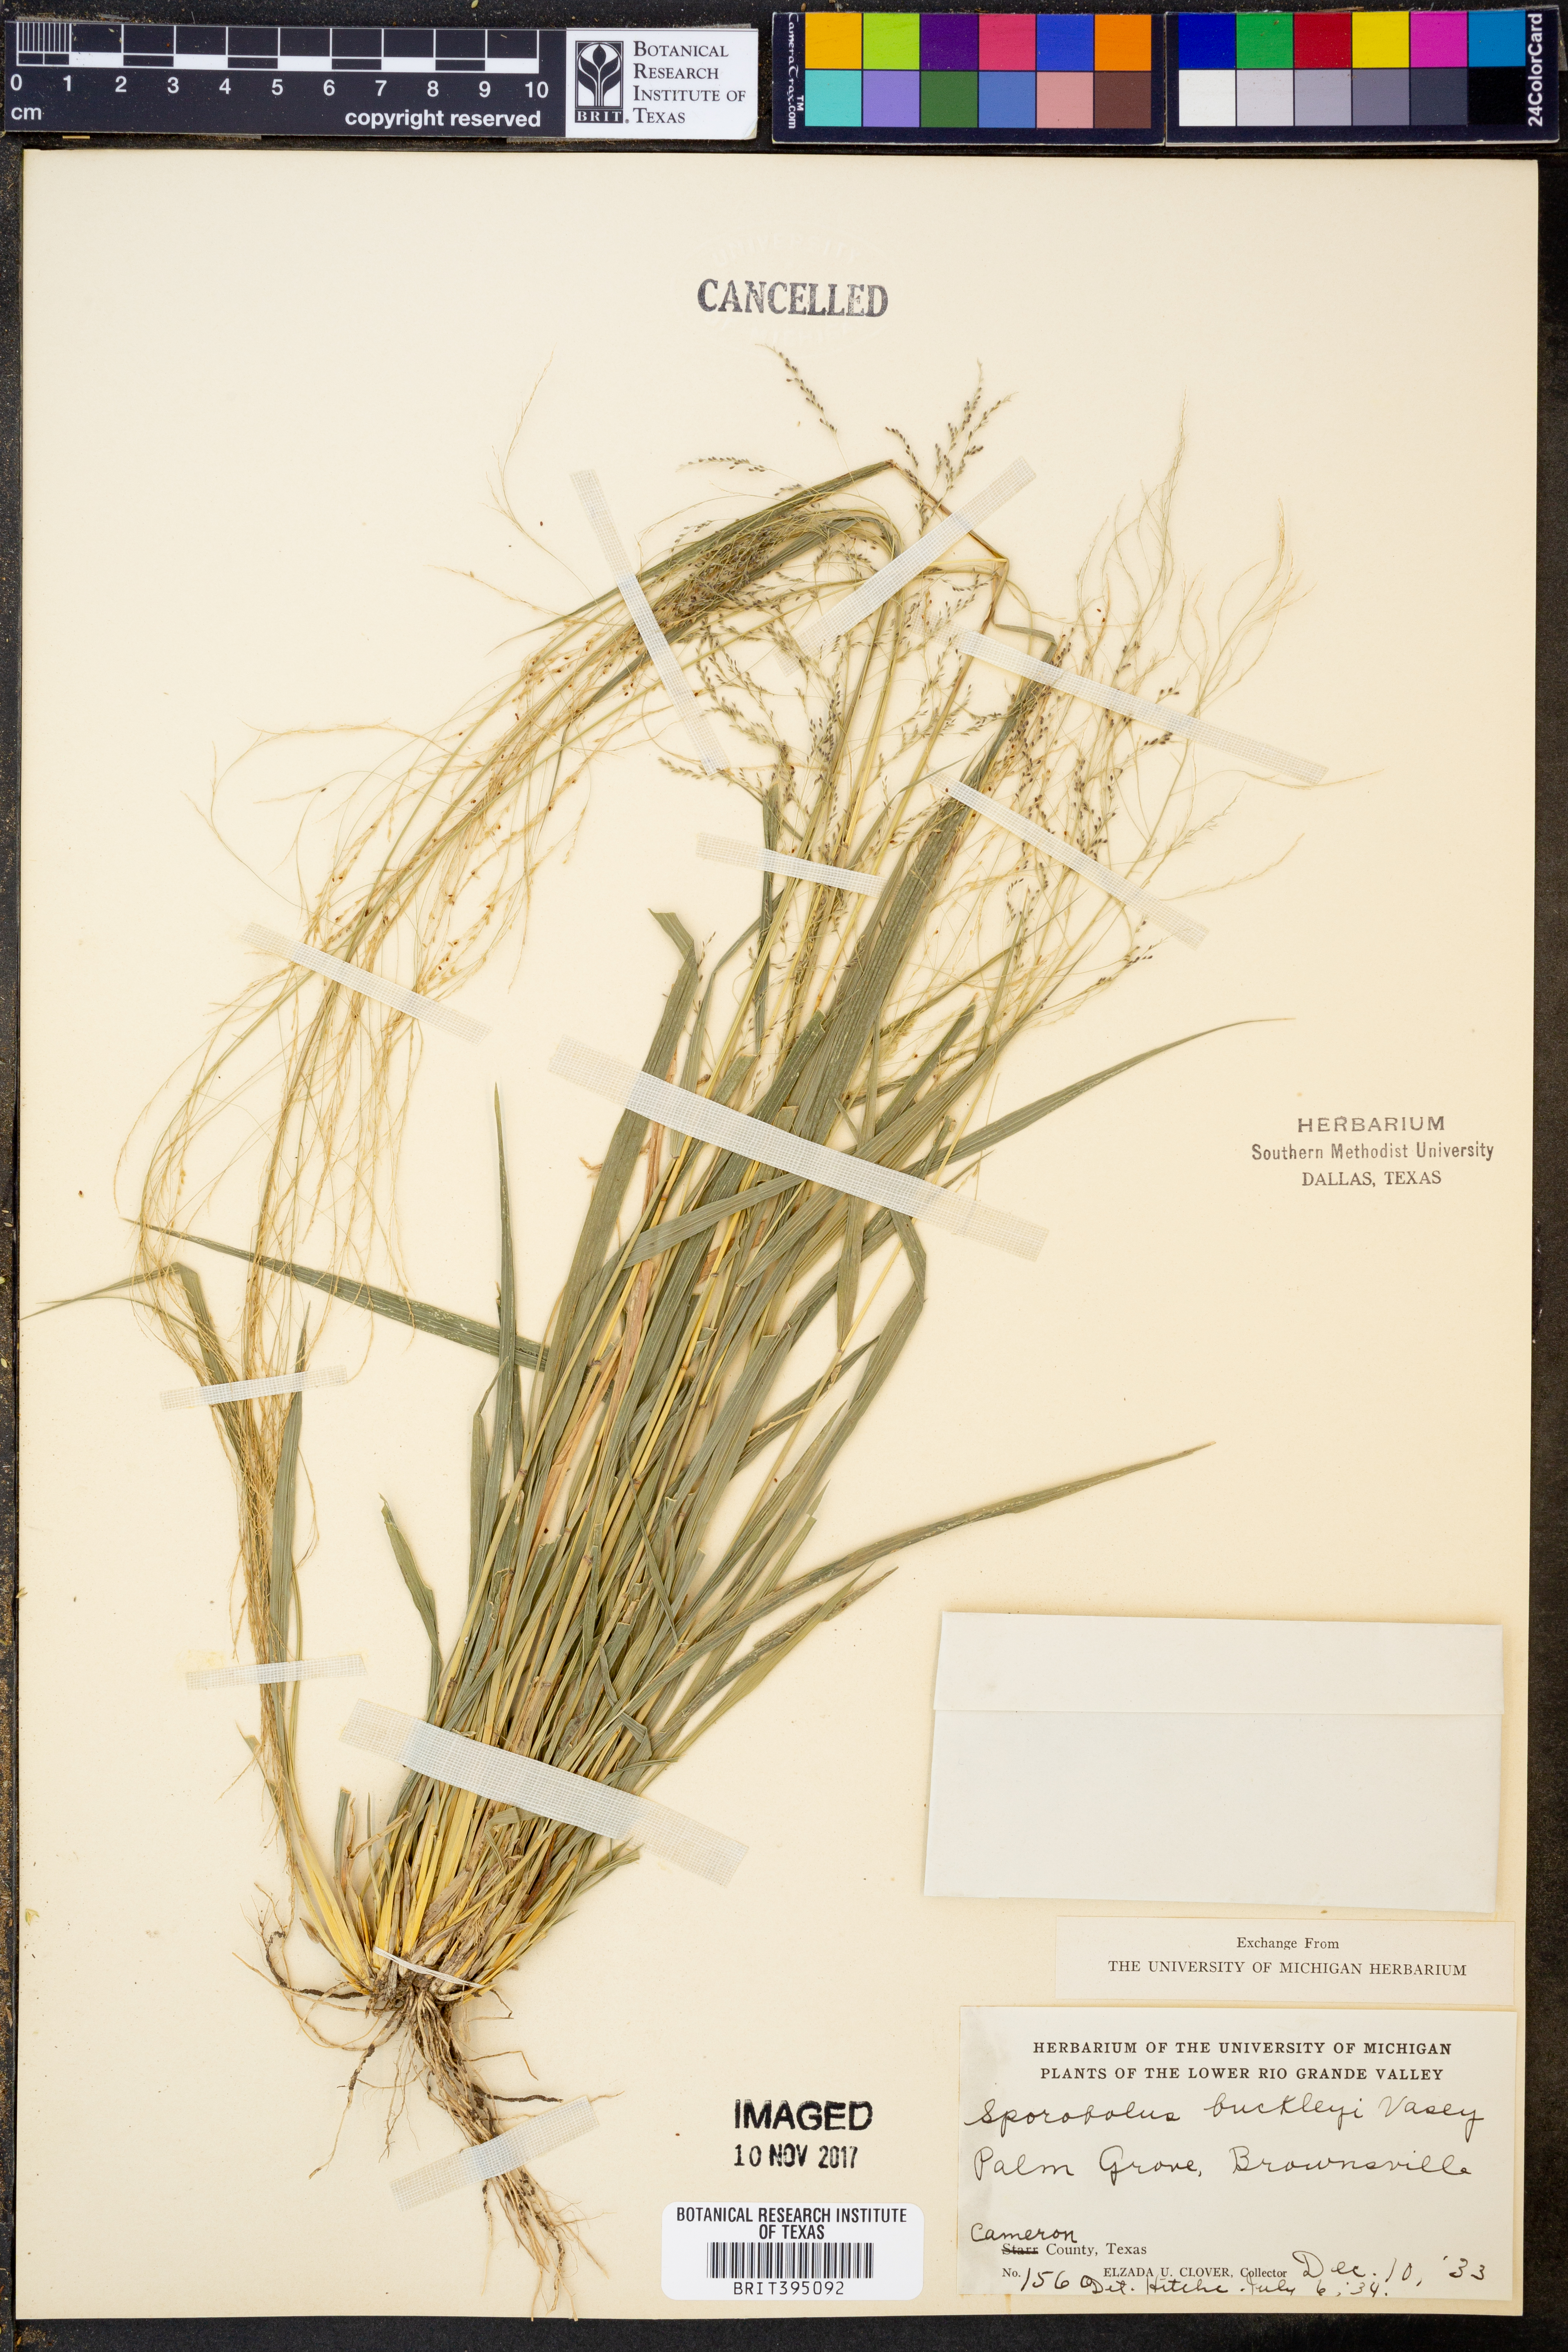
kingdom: Plantae
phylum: Tracheophyta
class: Liliopsida
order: Poales
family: Poaceae
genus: Sporobolus
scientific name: Sporobolus buckleyi
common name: Buckley's dropseed
